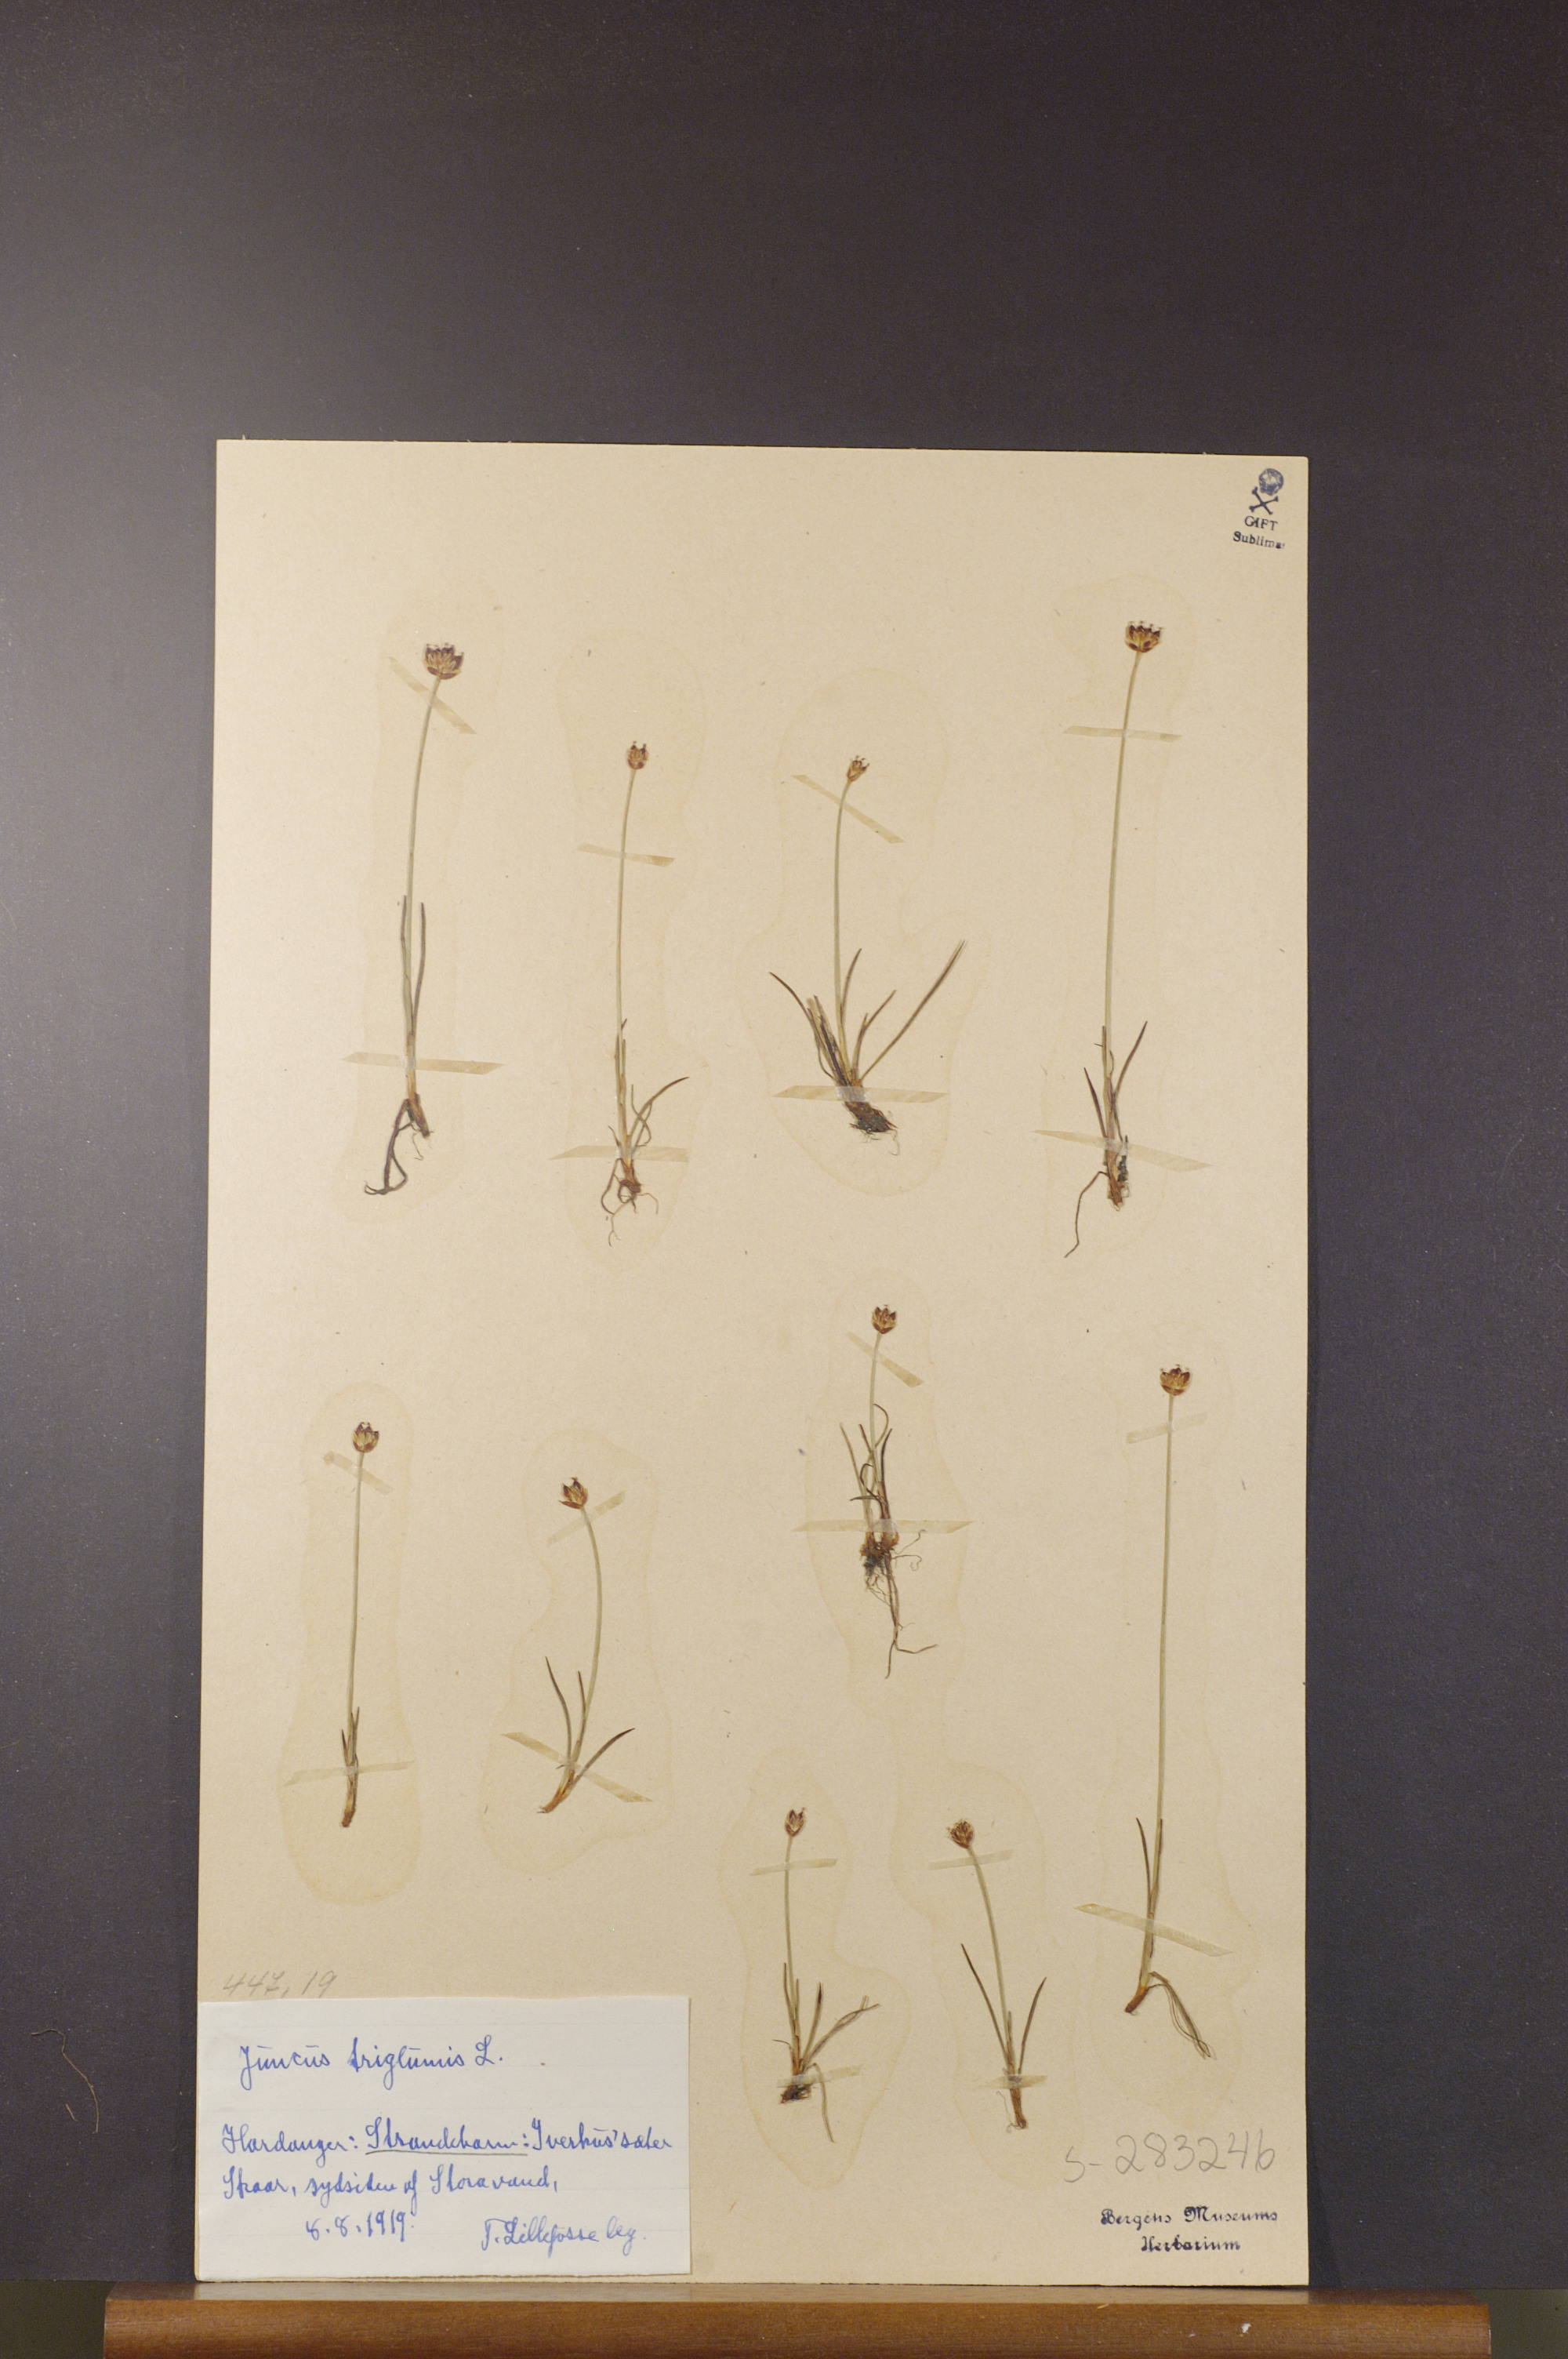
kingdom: Plantae
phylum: Tracheophyta
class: Liliopsida
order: Poales
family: Juncaceae
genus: Juncus
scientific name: Juncus triglumis
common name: Three-flowered rush
